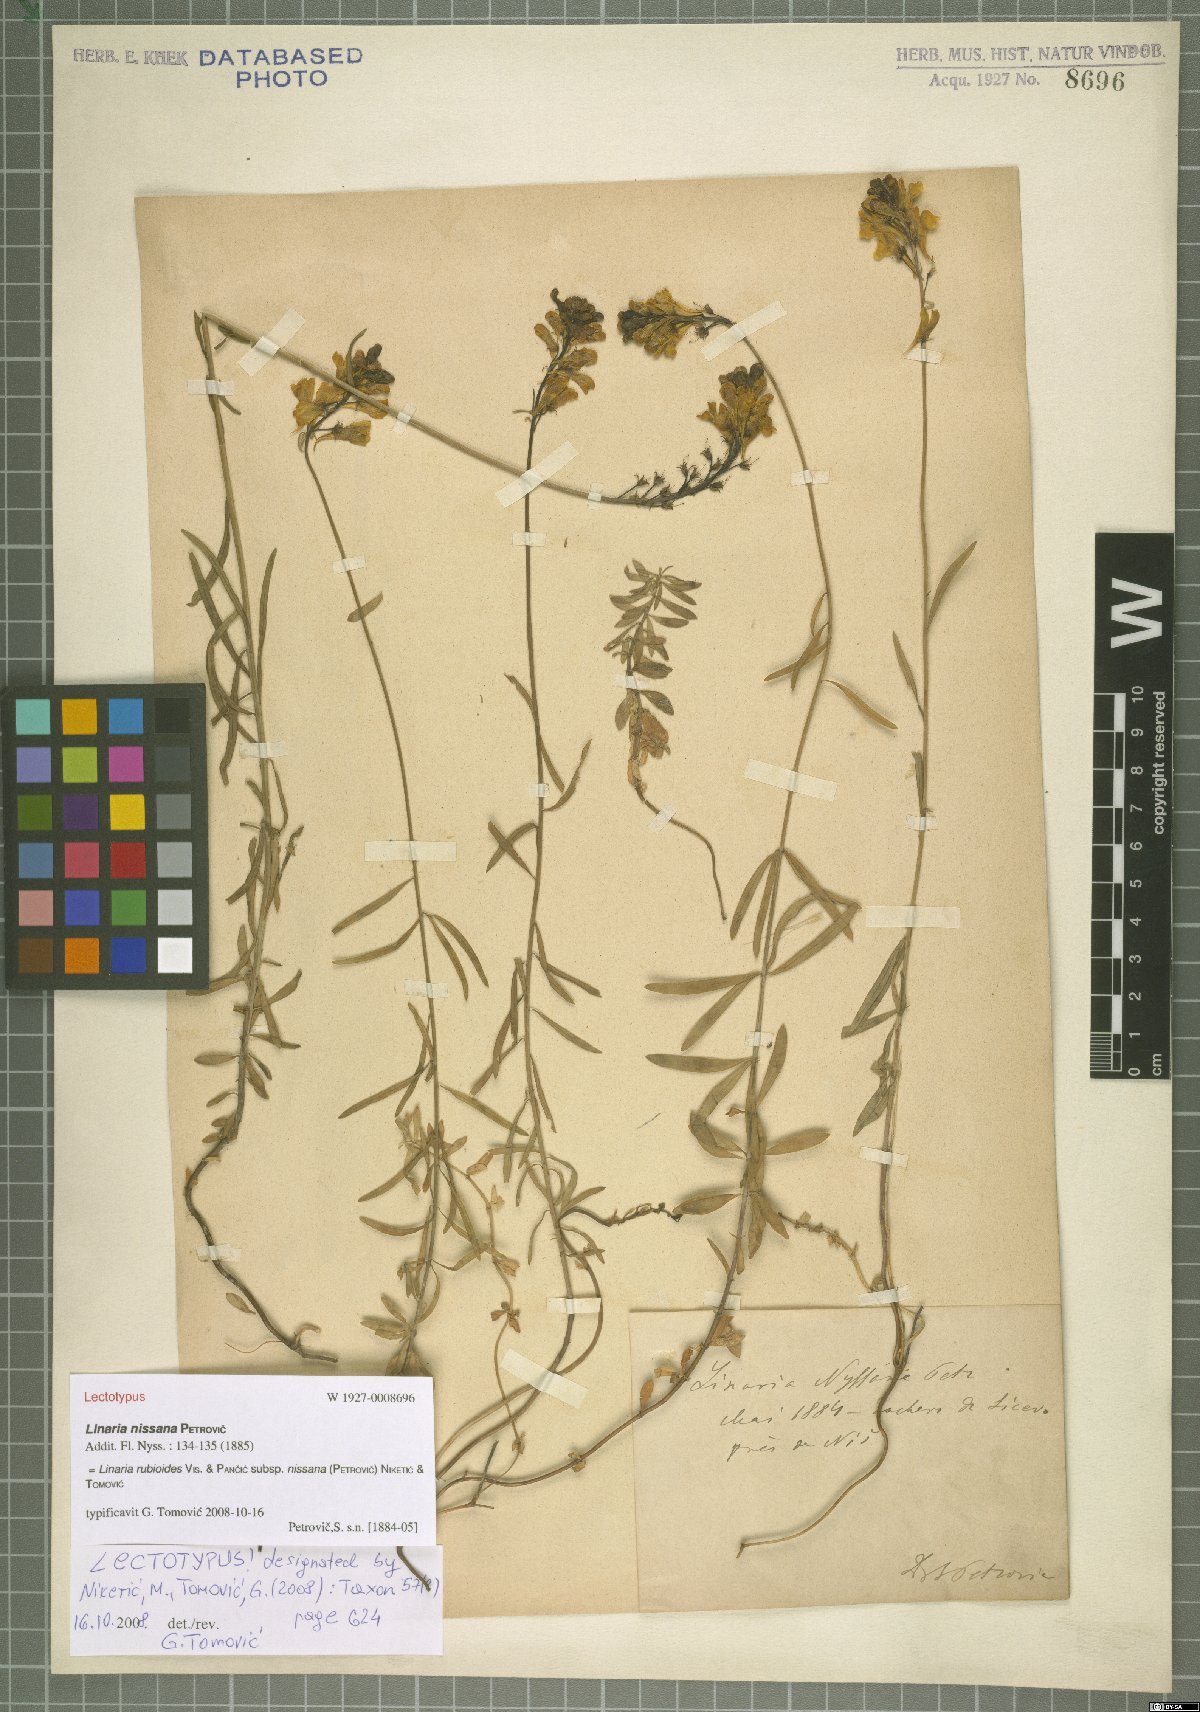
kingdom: Plantae
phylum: Tracheophyta
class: Magnoliopsida
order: Lamiales
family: Plantaginaceae
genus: Linaria
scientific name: Linaria rubioides
